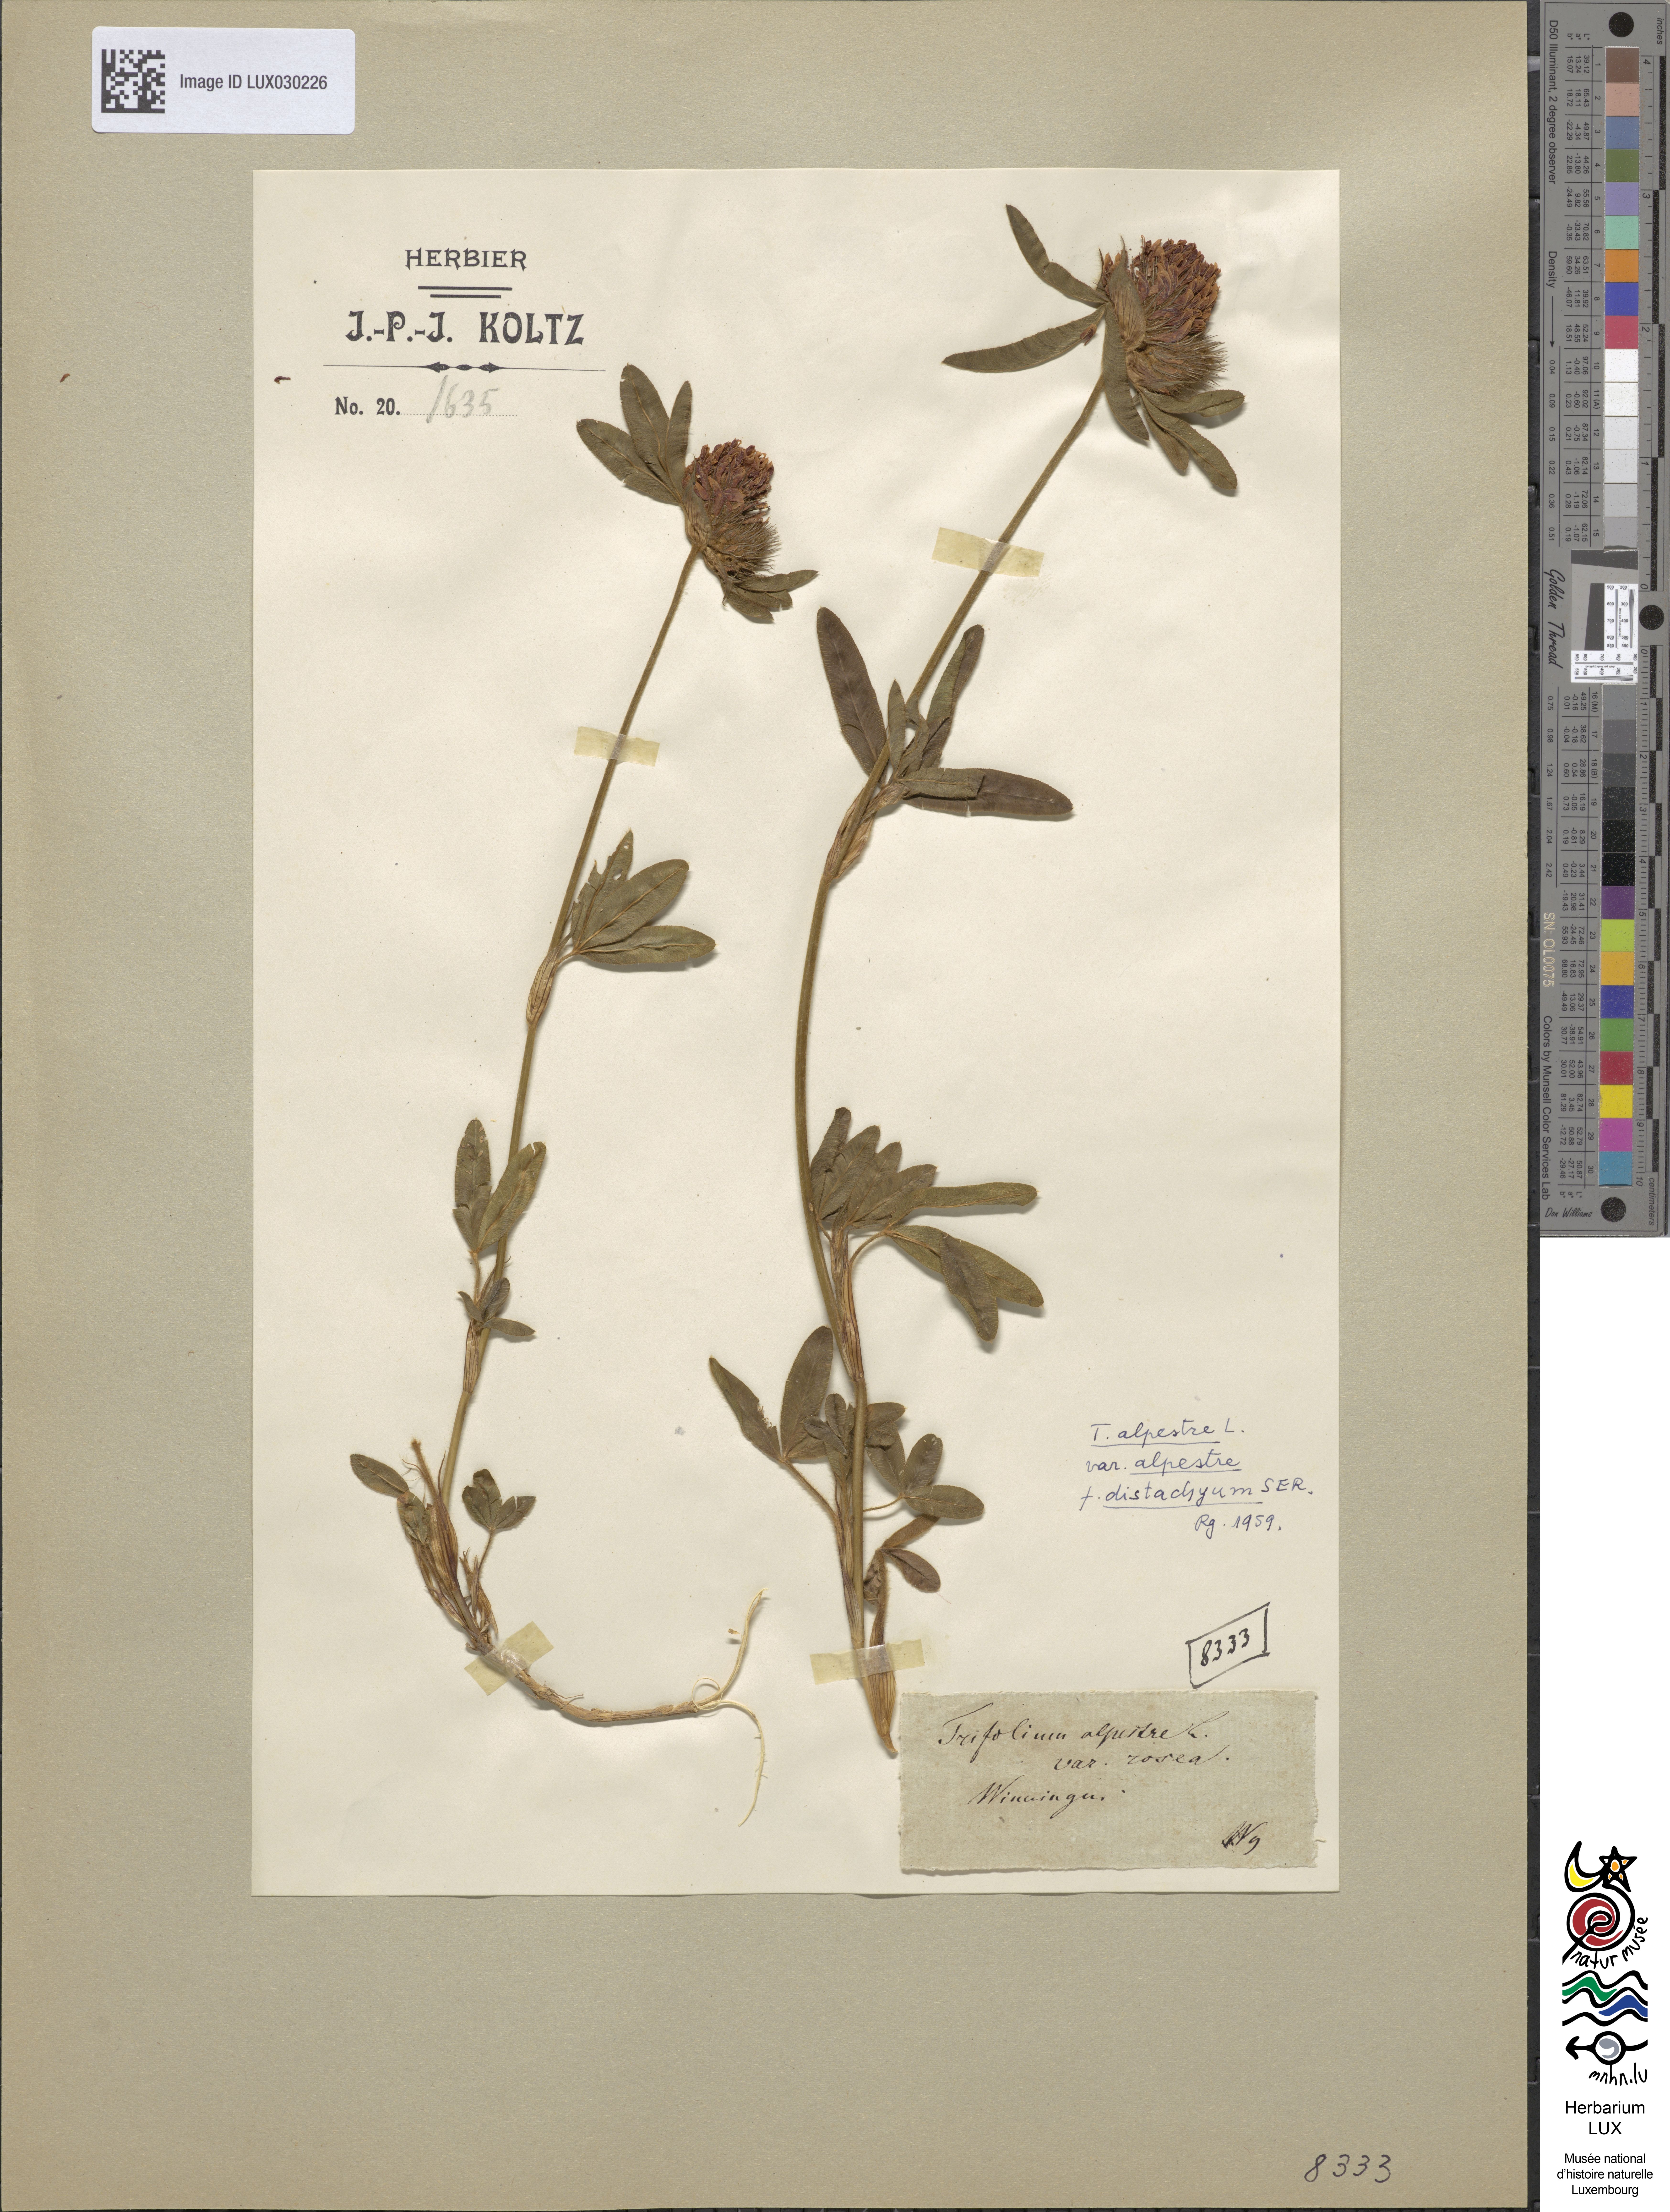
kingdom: Plantae
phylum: Tracheophyta
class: Magnoliopsida
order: Fabales
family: Fabaceae
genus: Trifolium
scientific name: Trifolium alpestre
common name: Owl-head clover
